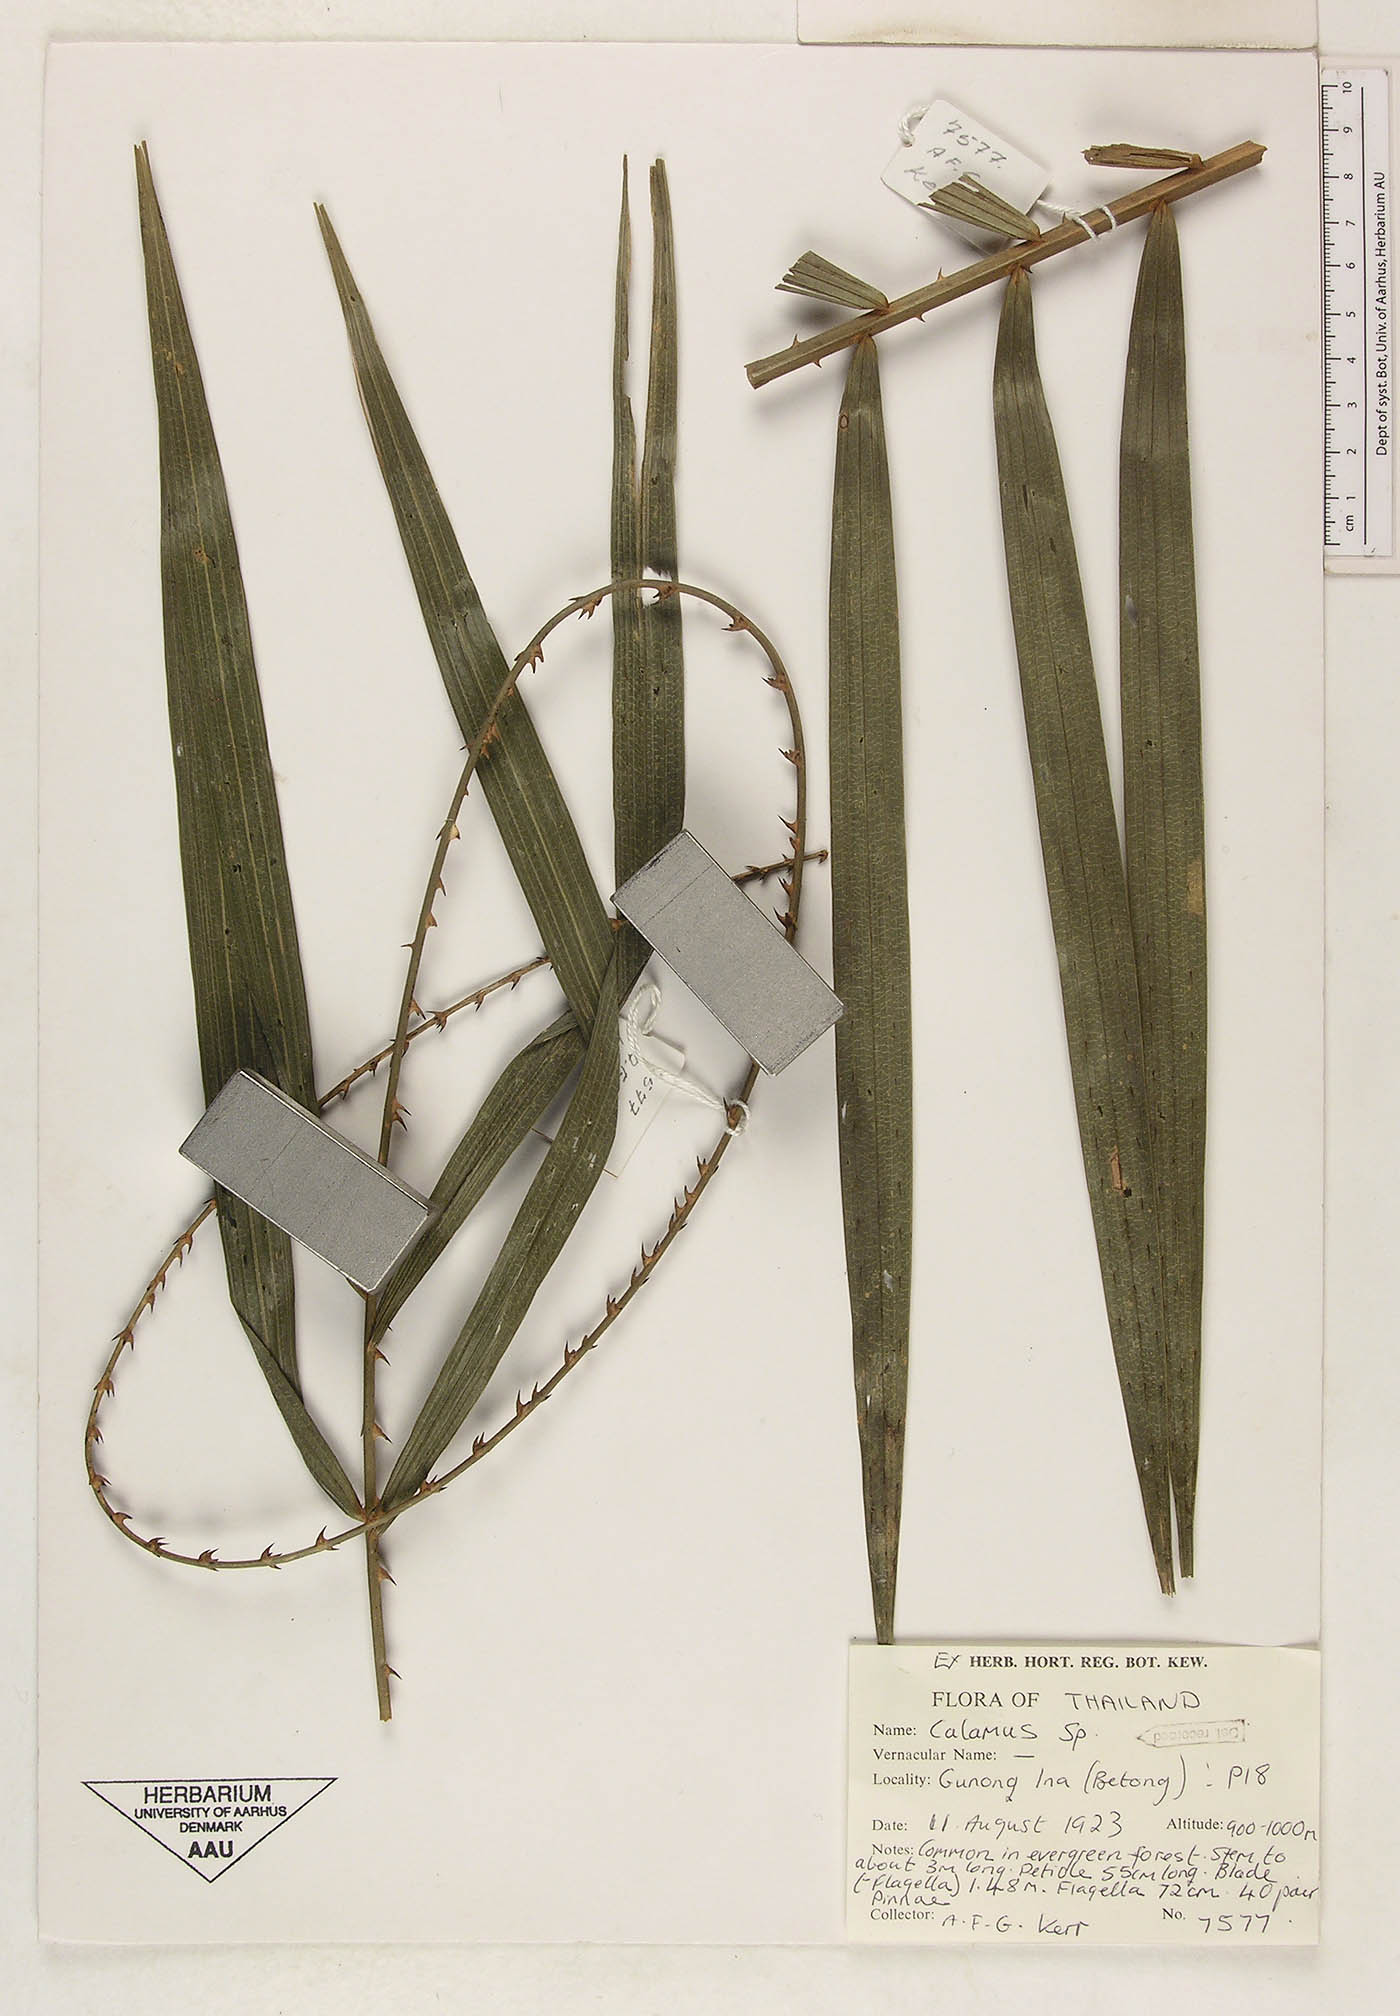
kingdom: Plantae
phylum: Tracheophyta
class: Liliopsida
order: Arecales
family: Arecaceae
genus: Calamus
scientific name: Calamus helferianus
